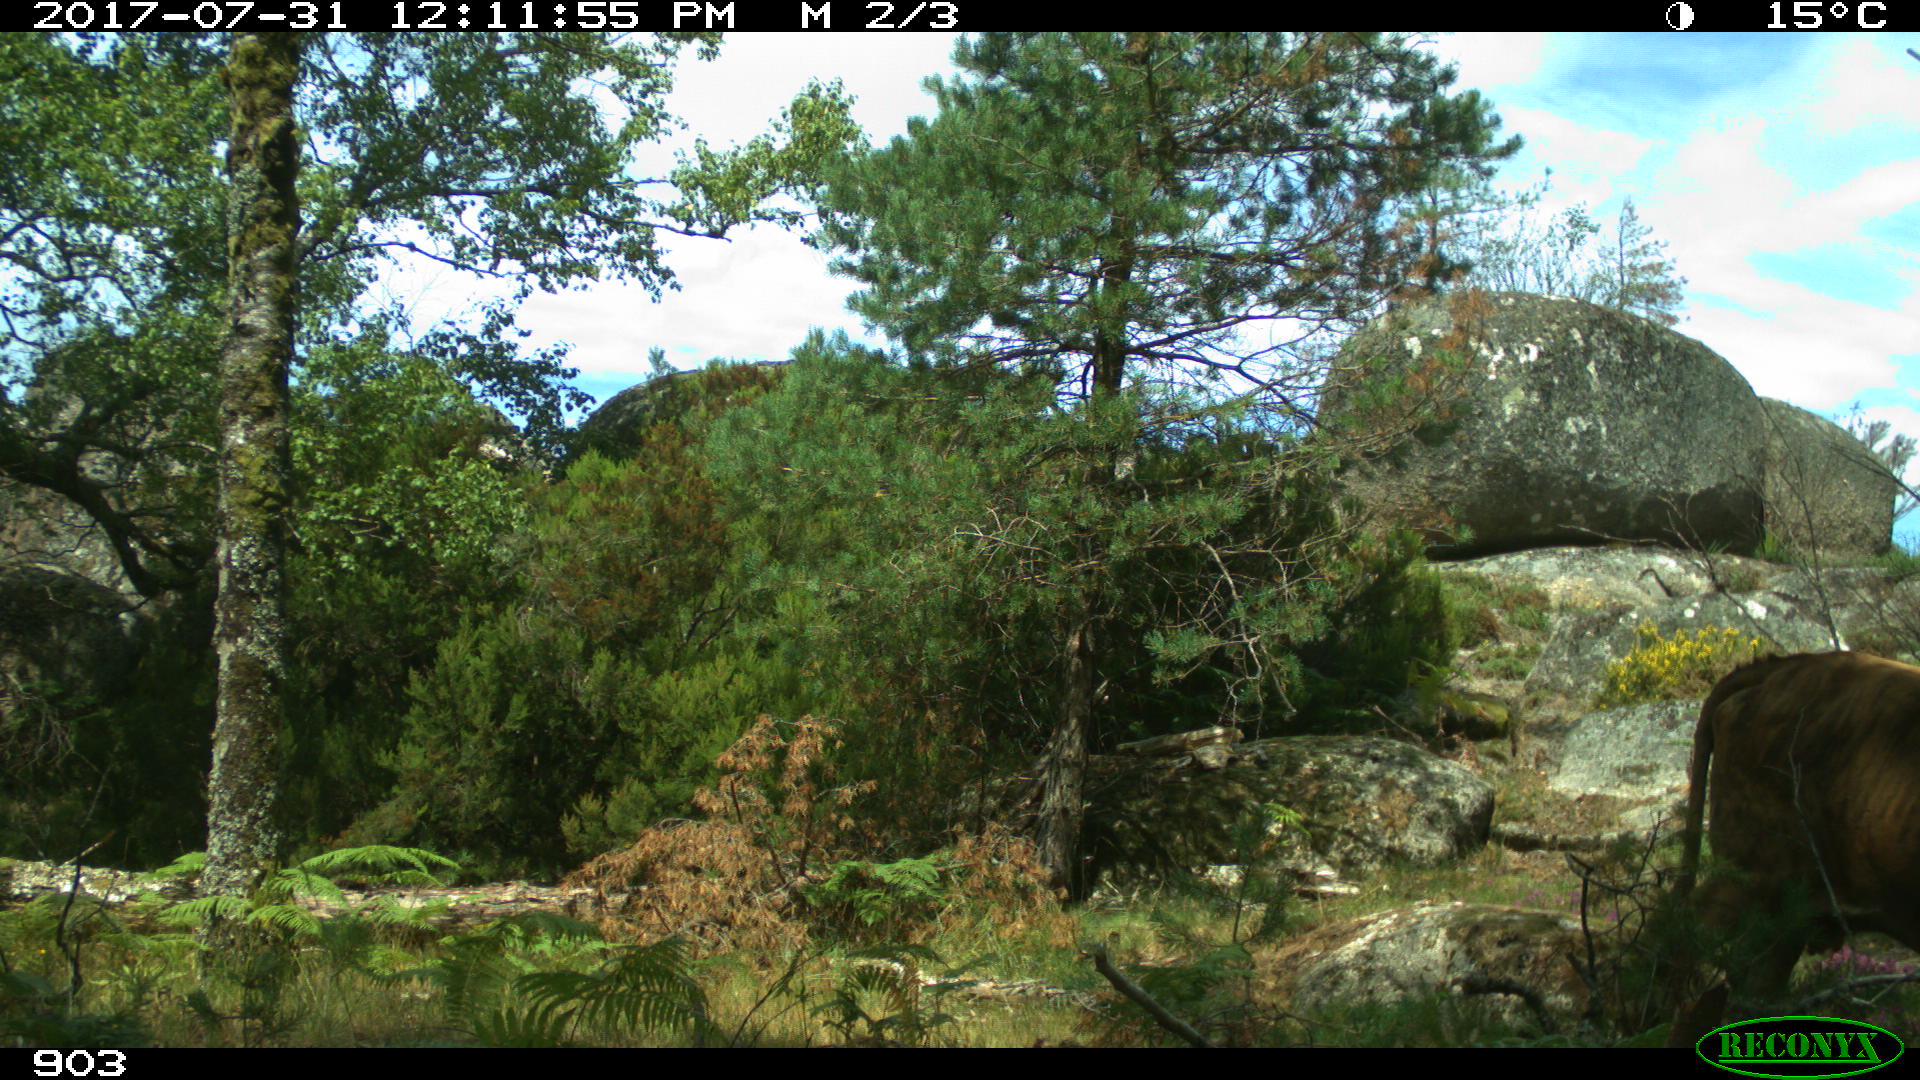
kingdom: Animalia
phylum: Chordata
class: Mammalia
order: Artiodactyla
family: Bovidae
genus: Bos
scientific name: Bos taurus
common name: Domesticated cattle
